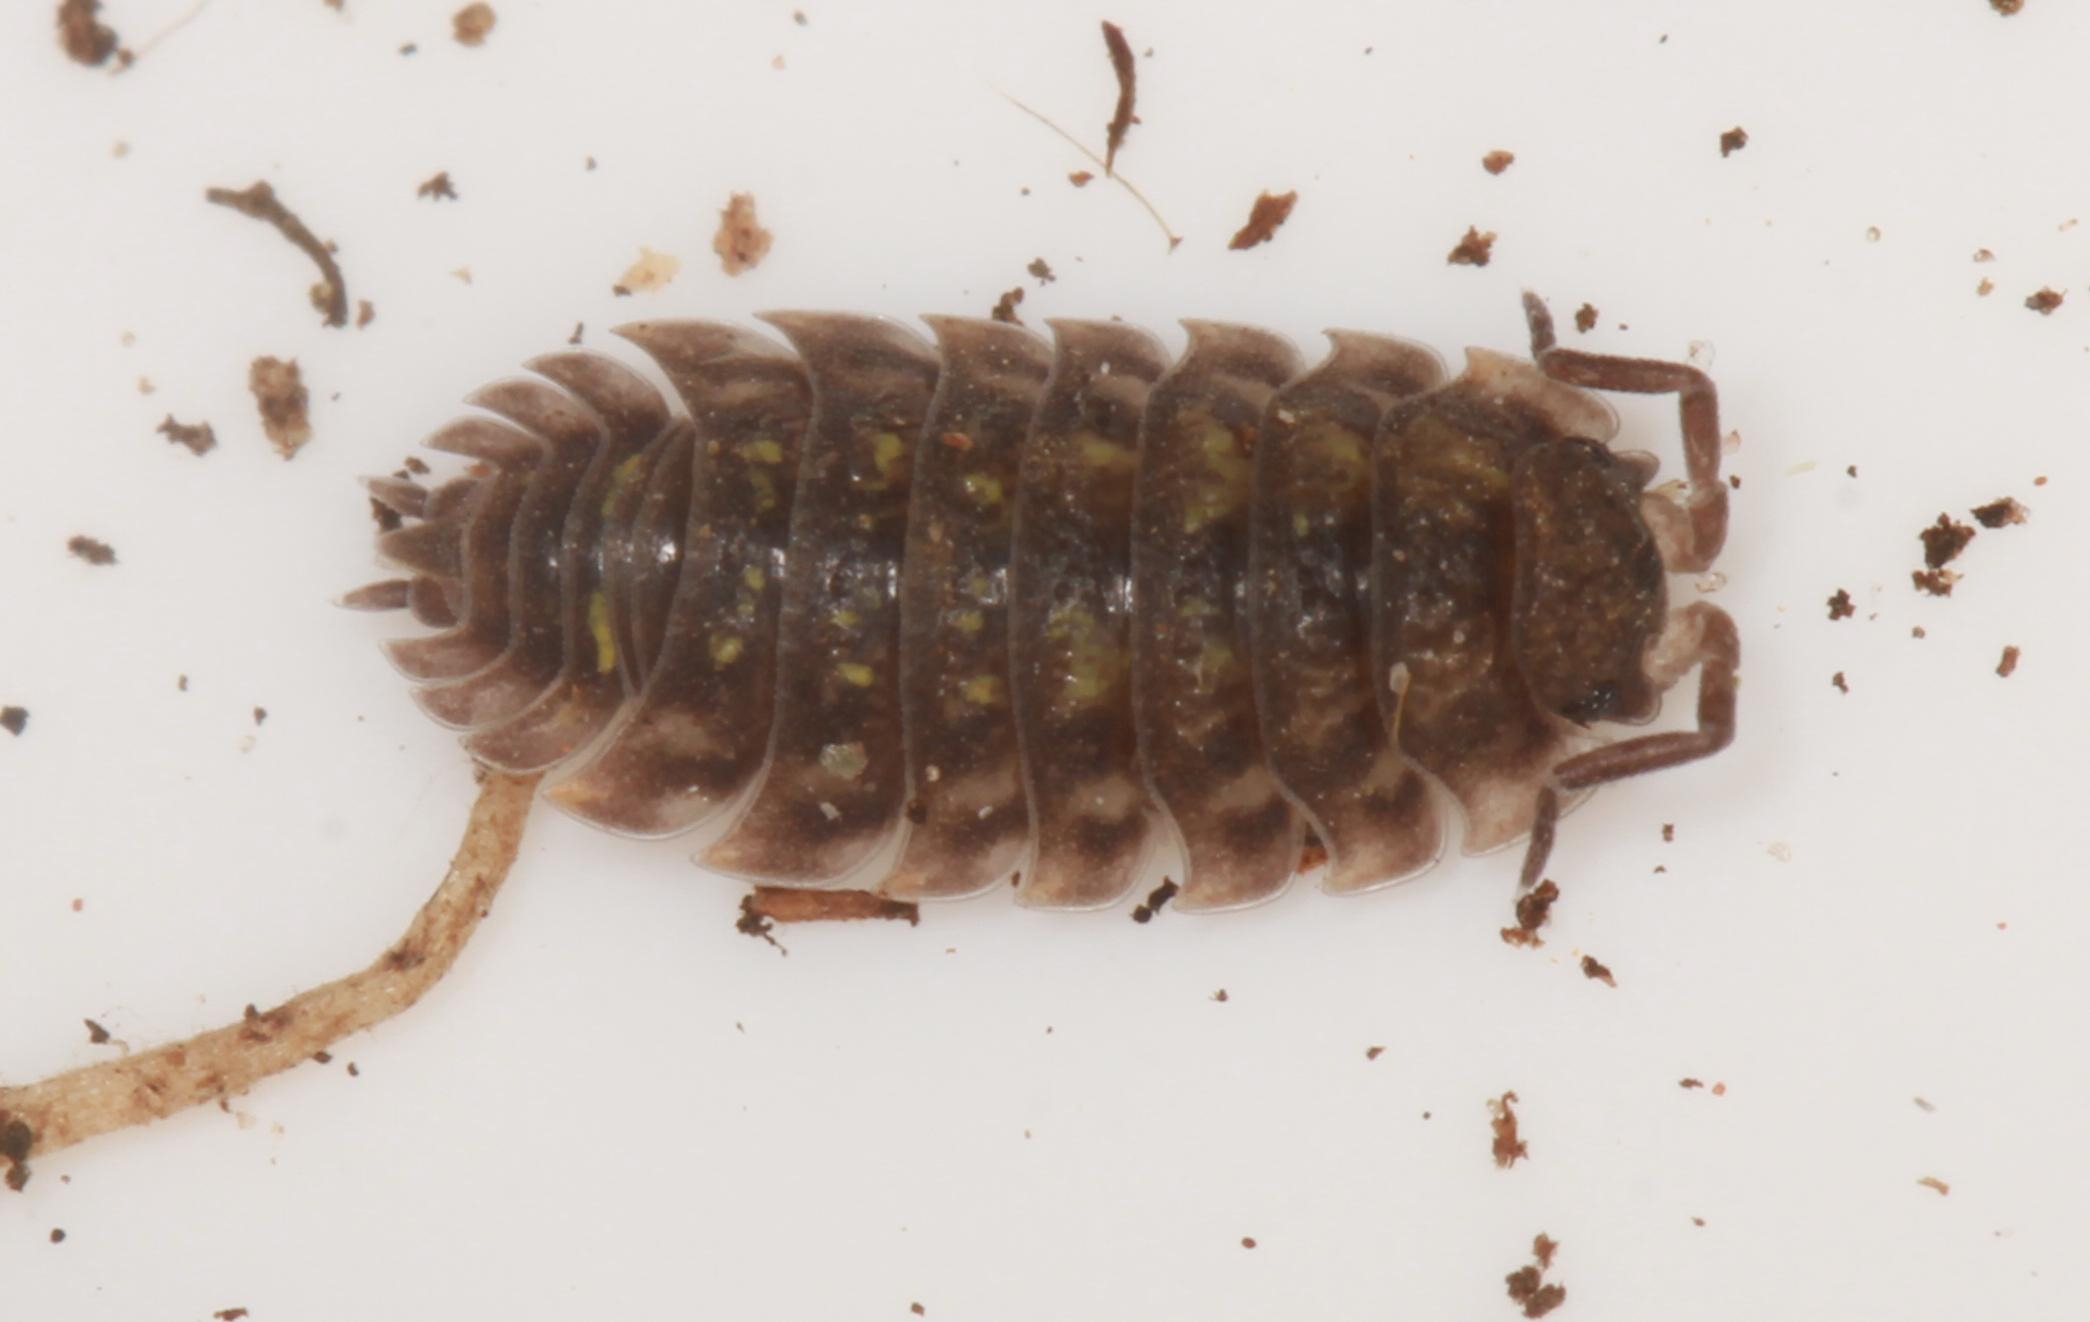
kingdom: Animalia
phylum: Arthropoda
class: Malacostraca
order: Isopoda
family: Oniscidae
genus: Oniscus
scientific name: Oniscus asellus
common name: Glat bænkebider
